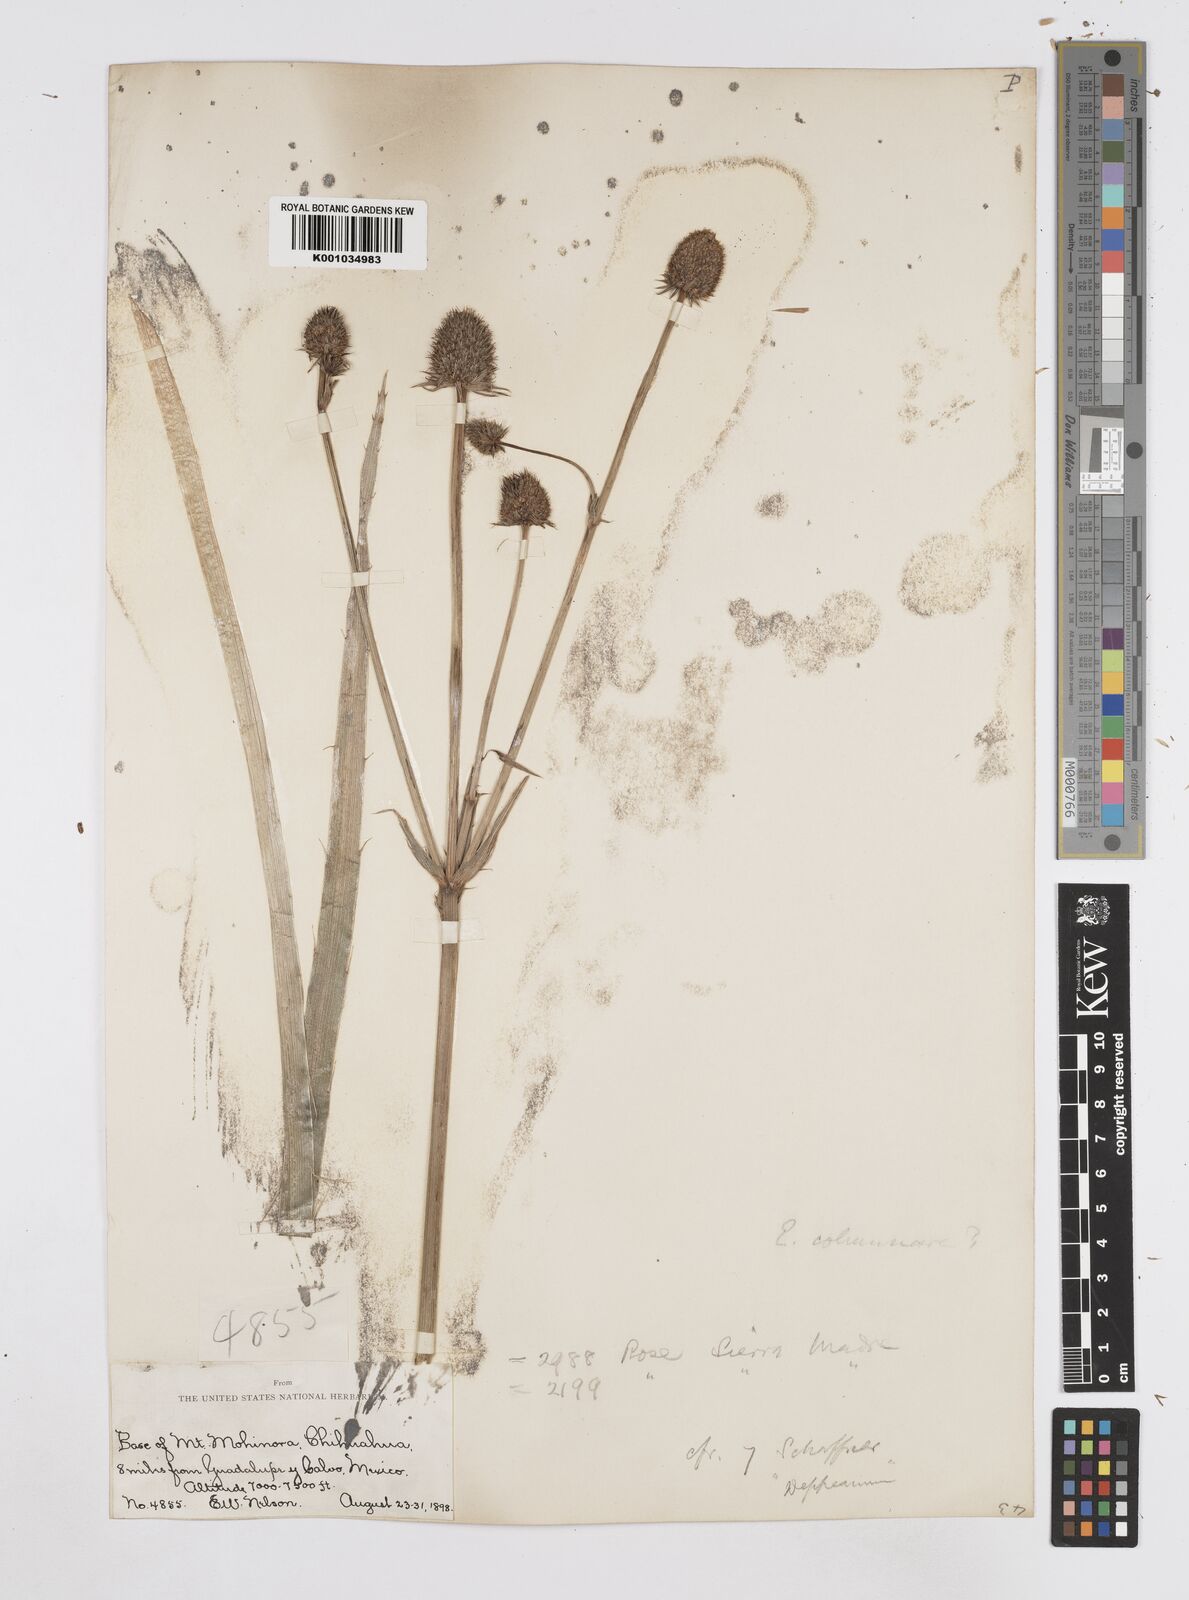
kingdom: Plantae
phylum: Tracheophyta
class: Magnoliopsida
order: Apiales
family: Apiaceae
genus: Eryngium
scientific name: Eryngium columnare
